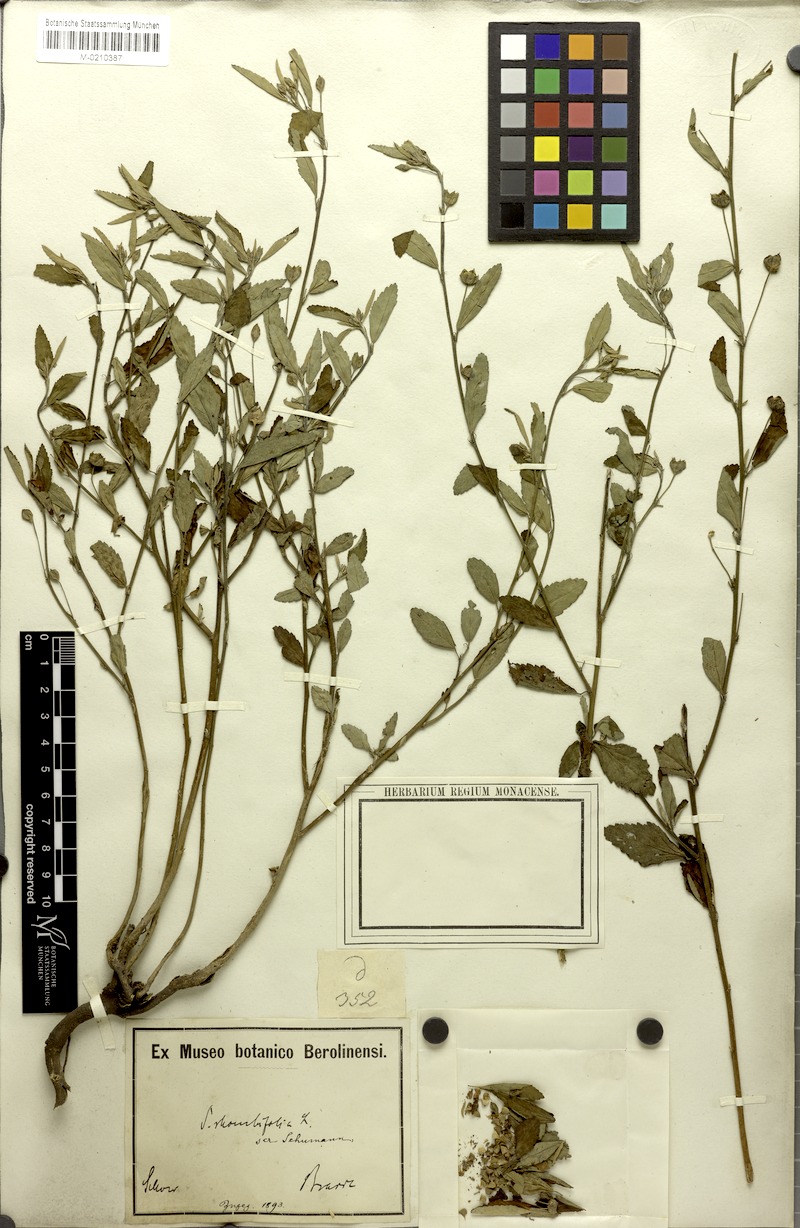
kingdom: Plantae
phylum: Tracheophyta
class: Magnoliopsida
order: Malvales
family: Malvaceae
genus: Sida
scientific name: Sida rhombifolia
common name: Queensland-hemp
